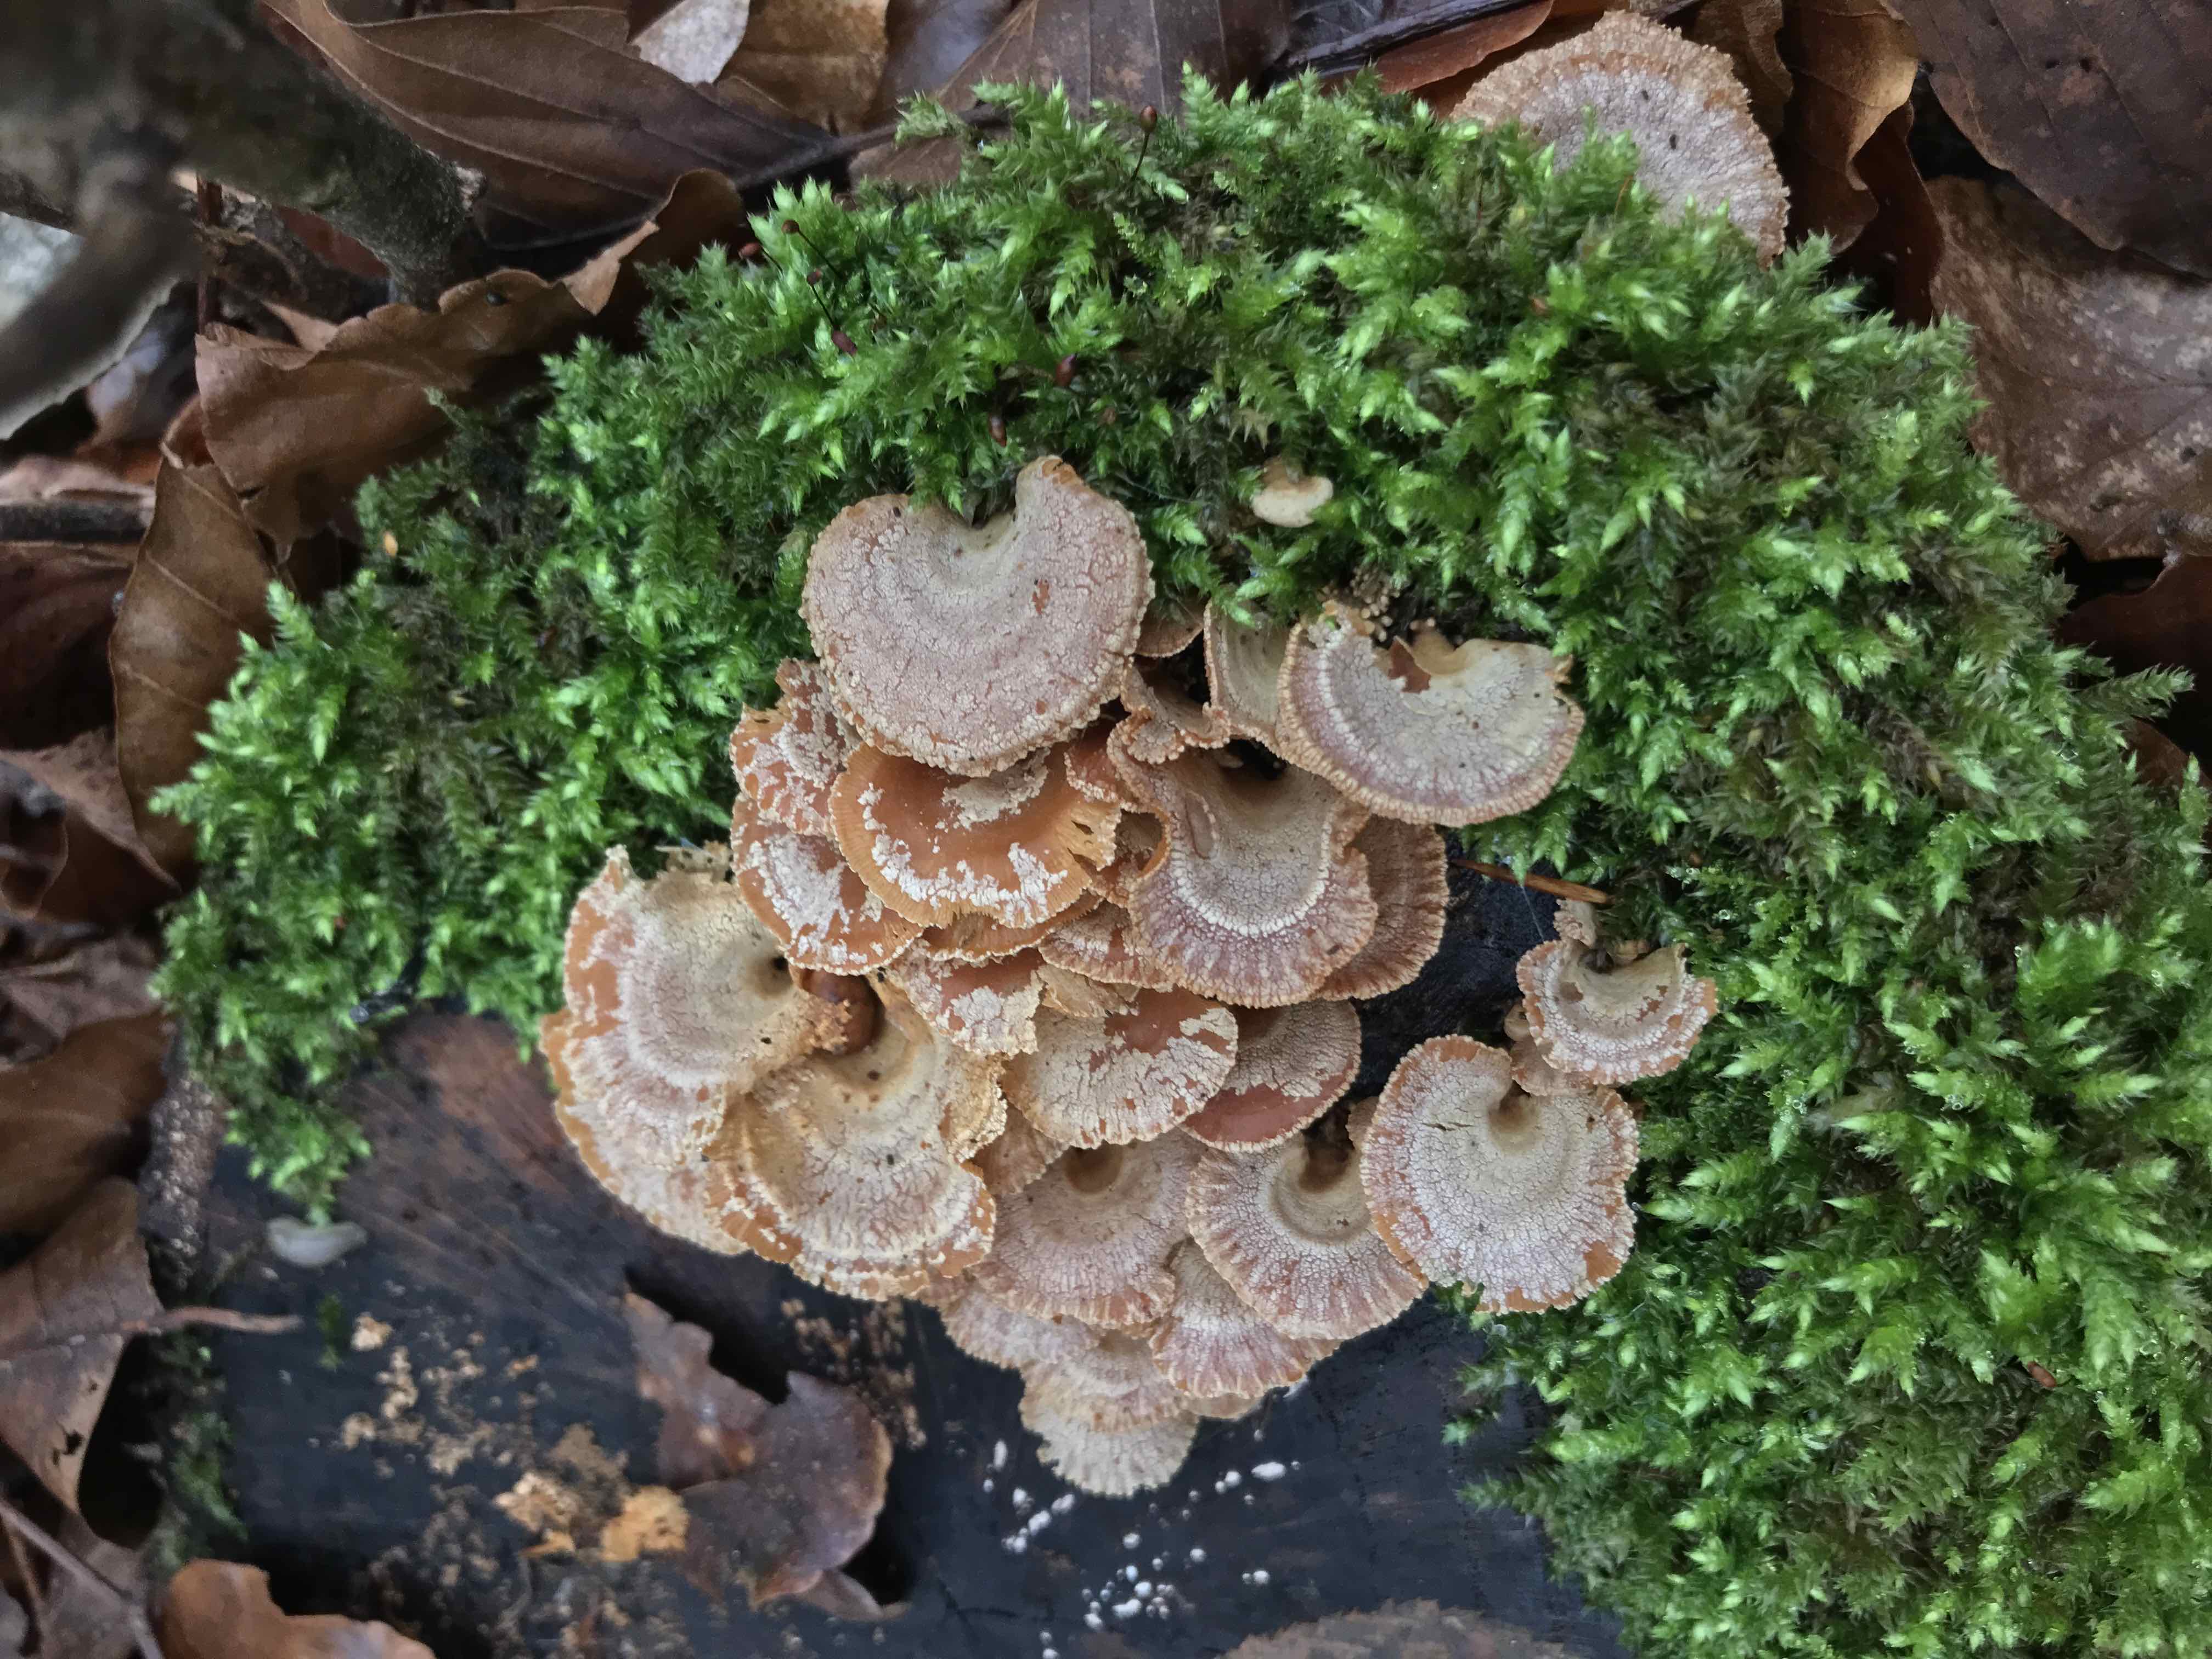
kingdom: Fungi
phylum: Basidiomycota
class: Agaricomycetes
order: Agaricales
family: Mycenaceae
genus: Panellus
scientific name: Panellus stipticus
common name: kliddet epaulethat
